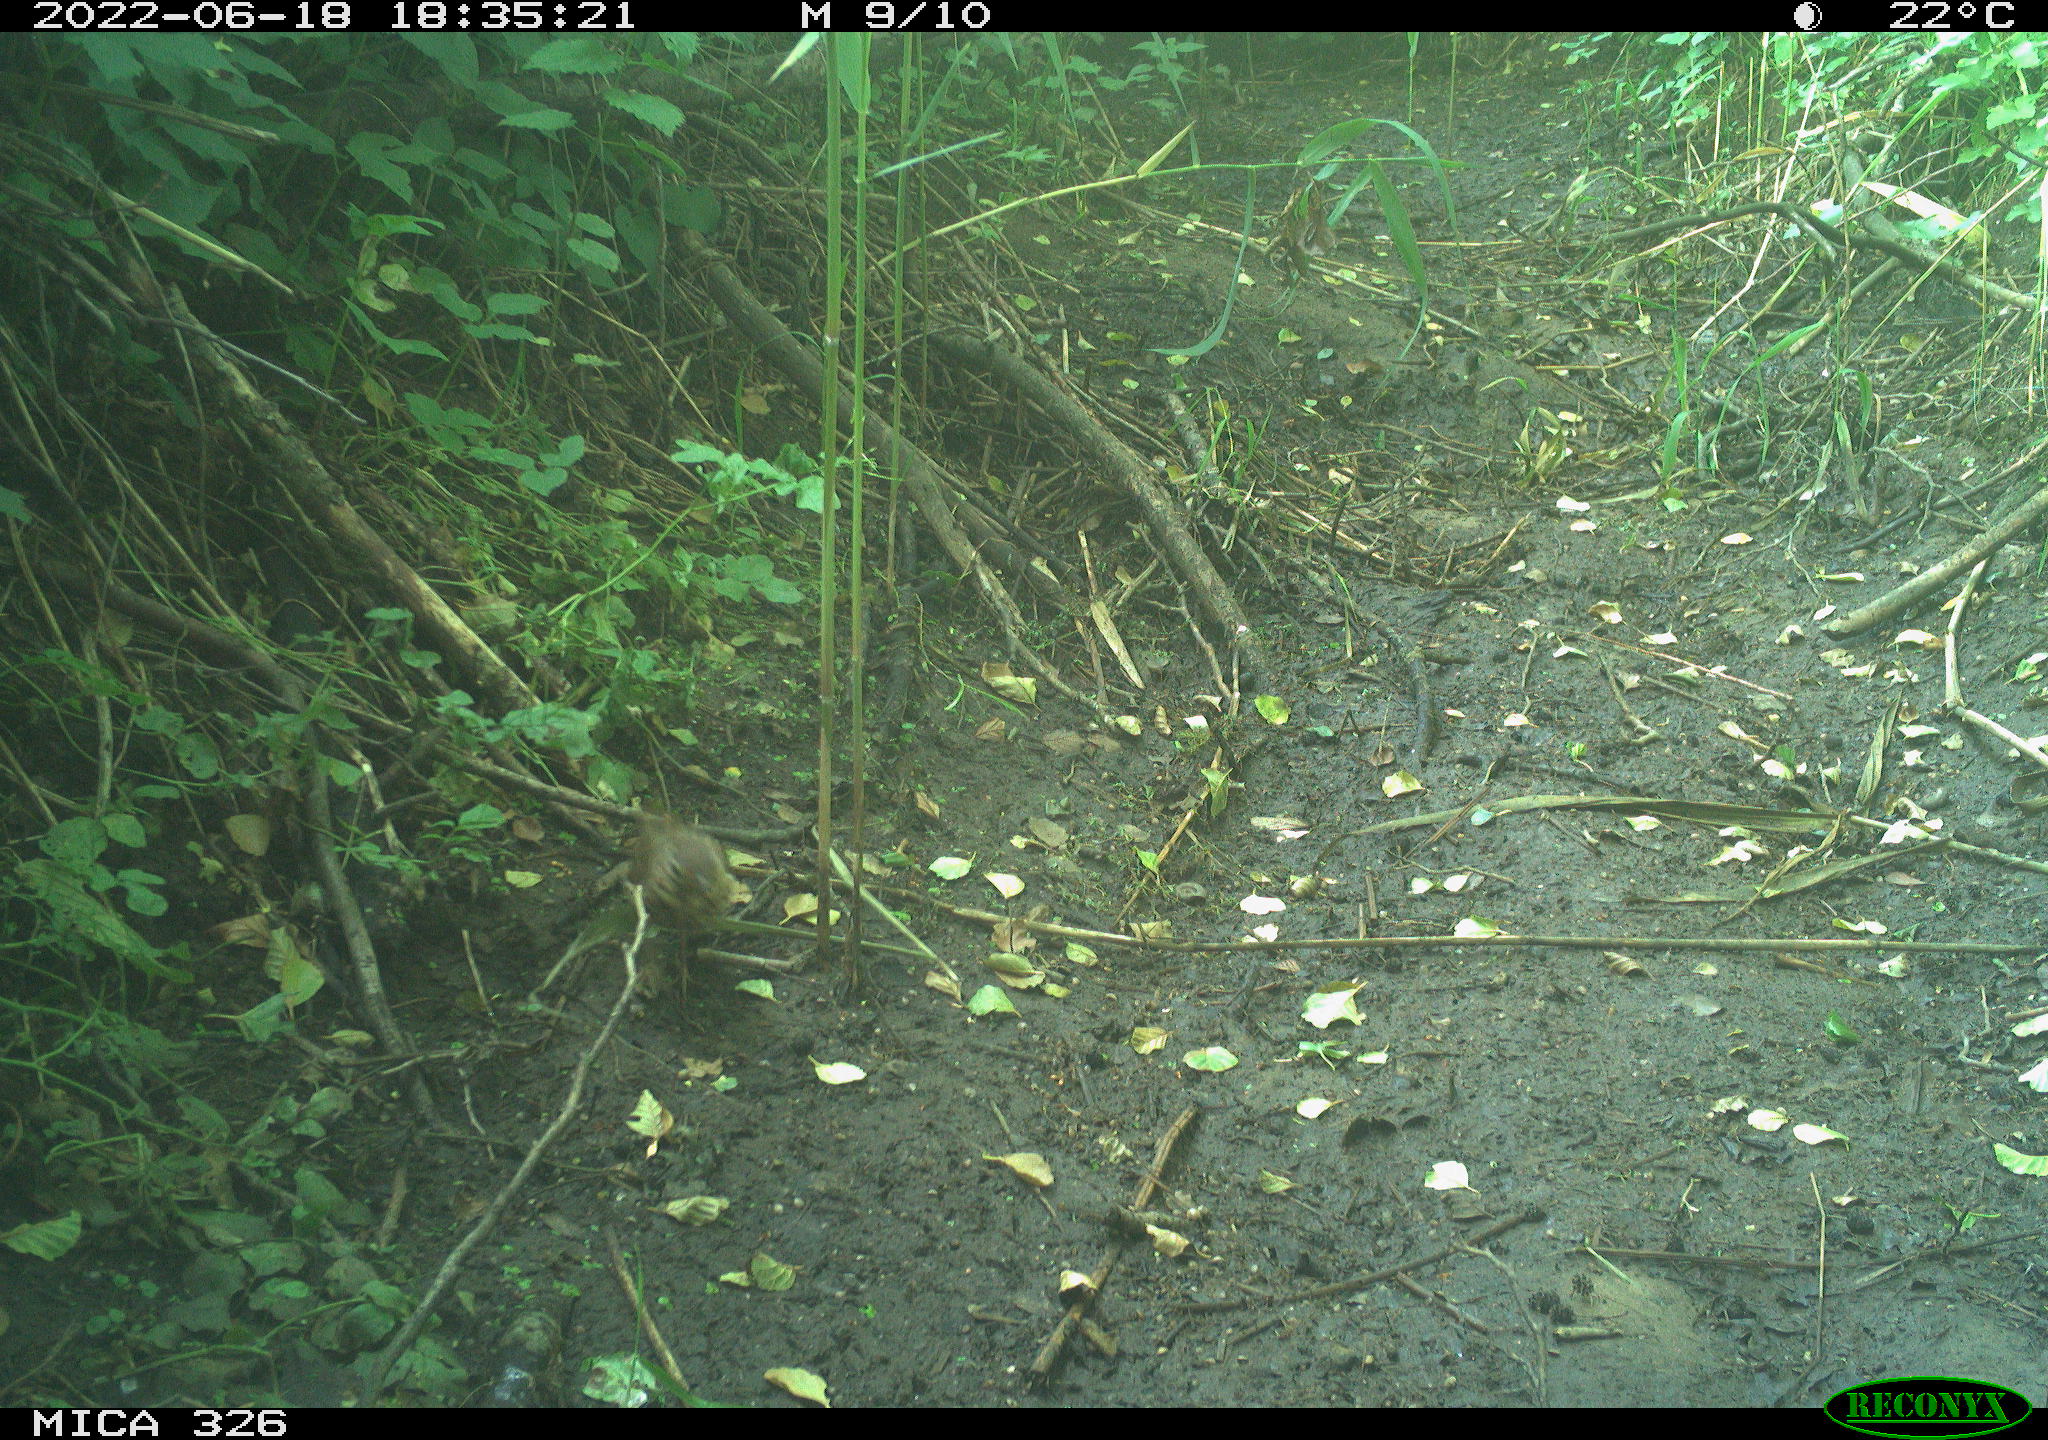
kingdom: Animalia
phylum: Chordata
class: Aves
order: Passeriformes
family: Turdidae
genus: Turdus
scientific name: Turdus philomelos
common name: Song thrush
